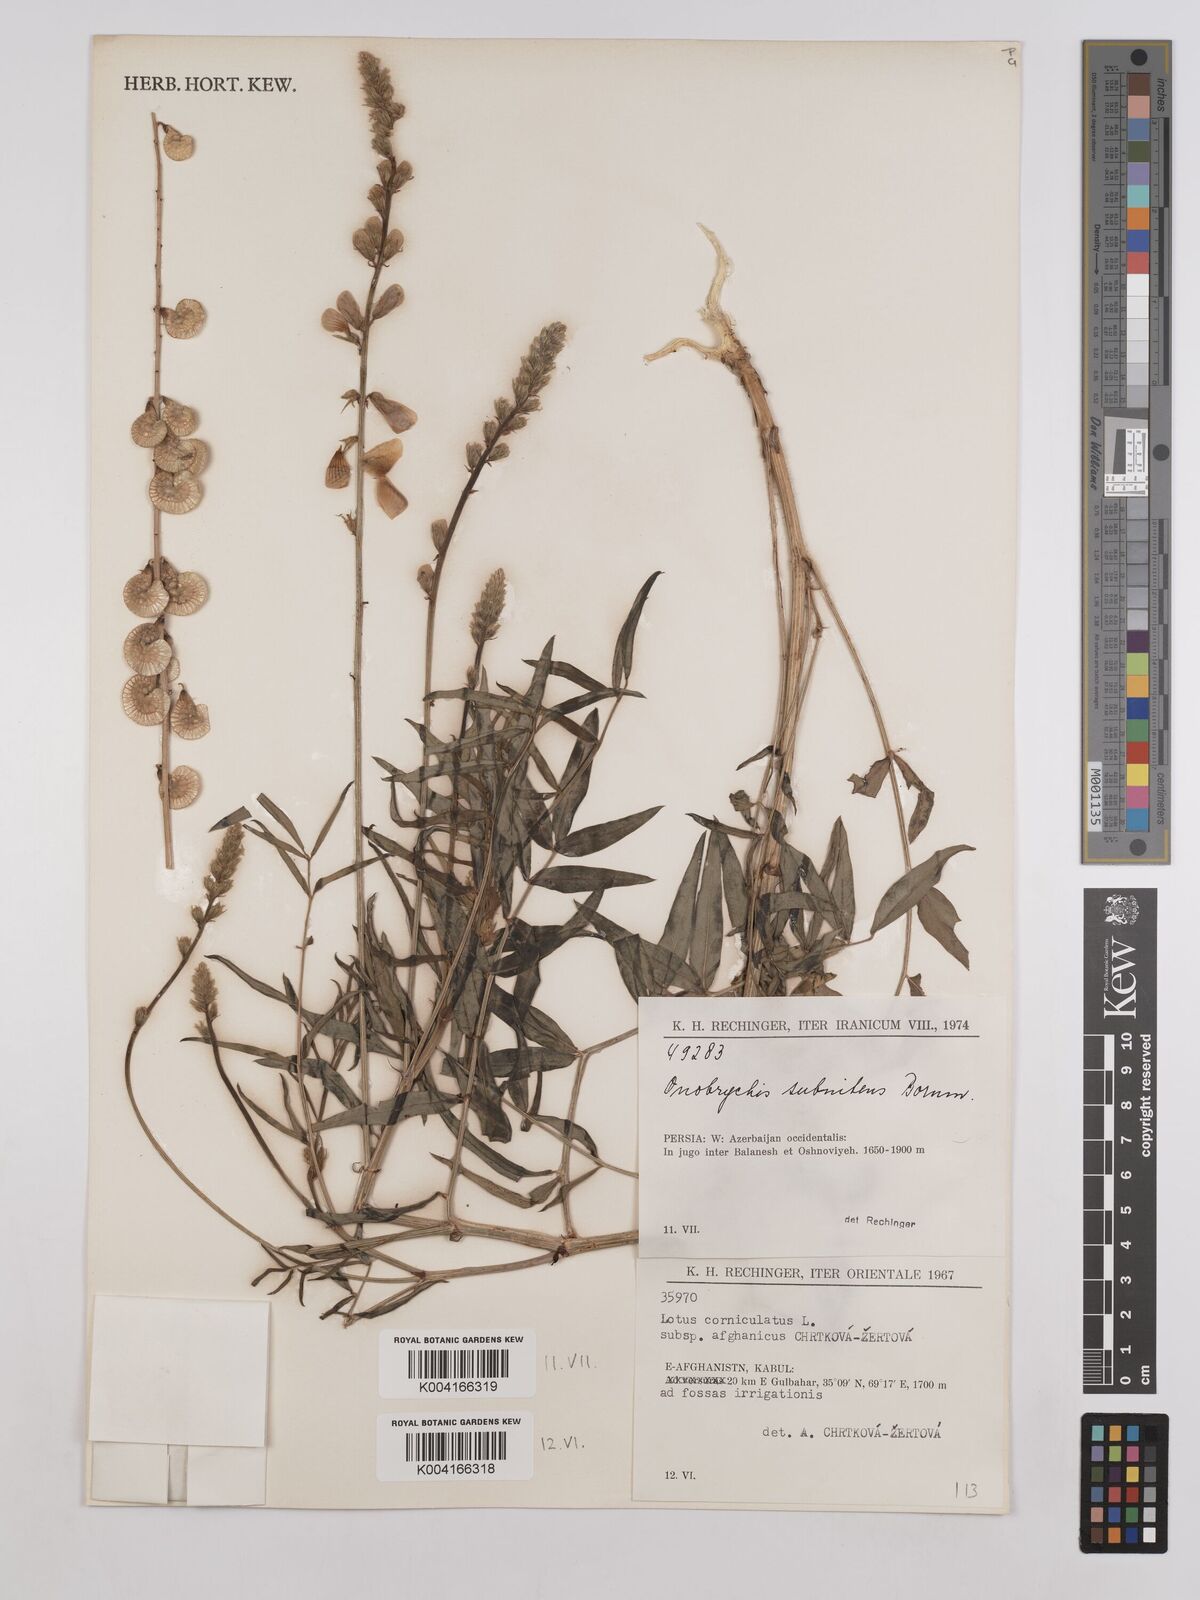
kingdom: Plantae
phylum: Tracheophyta
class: Magnoliopsida
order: Fabales
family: Fabaceae
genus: Onobrychis
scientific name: Onobrychis subnitens
